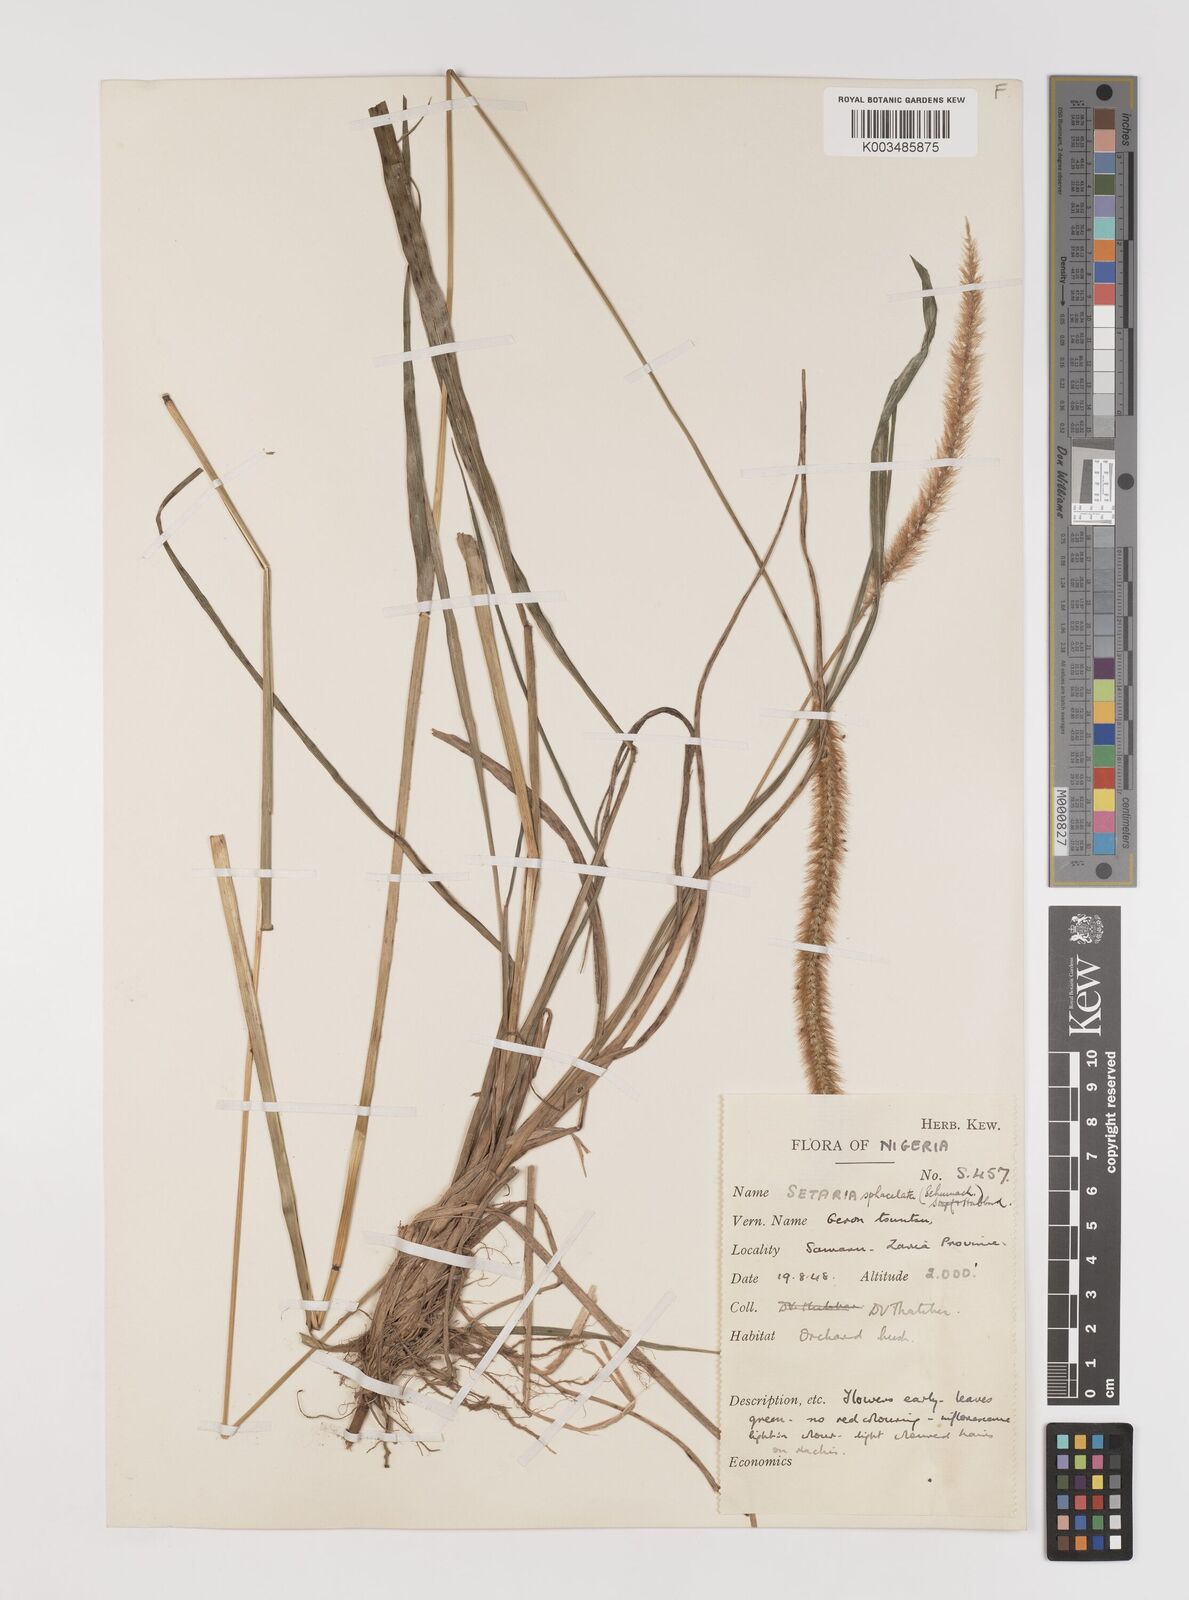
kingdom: Plantae
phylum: Tracheophyta
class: Liliopsida
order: Poales
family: Poaceae
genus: Setaria
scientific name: Setaria sphacelata
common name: African bristlegrass
